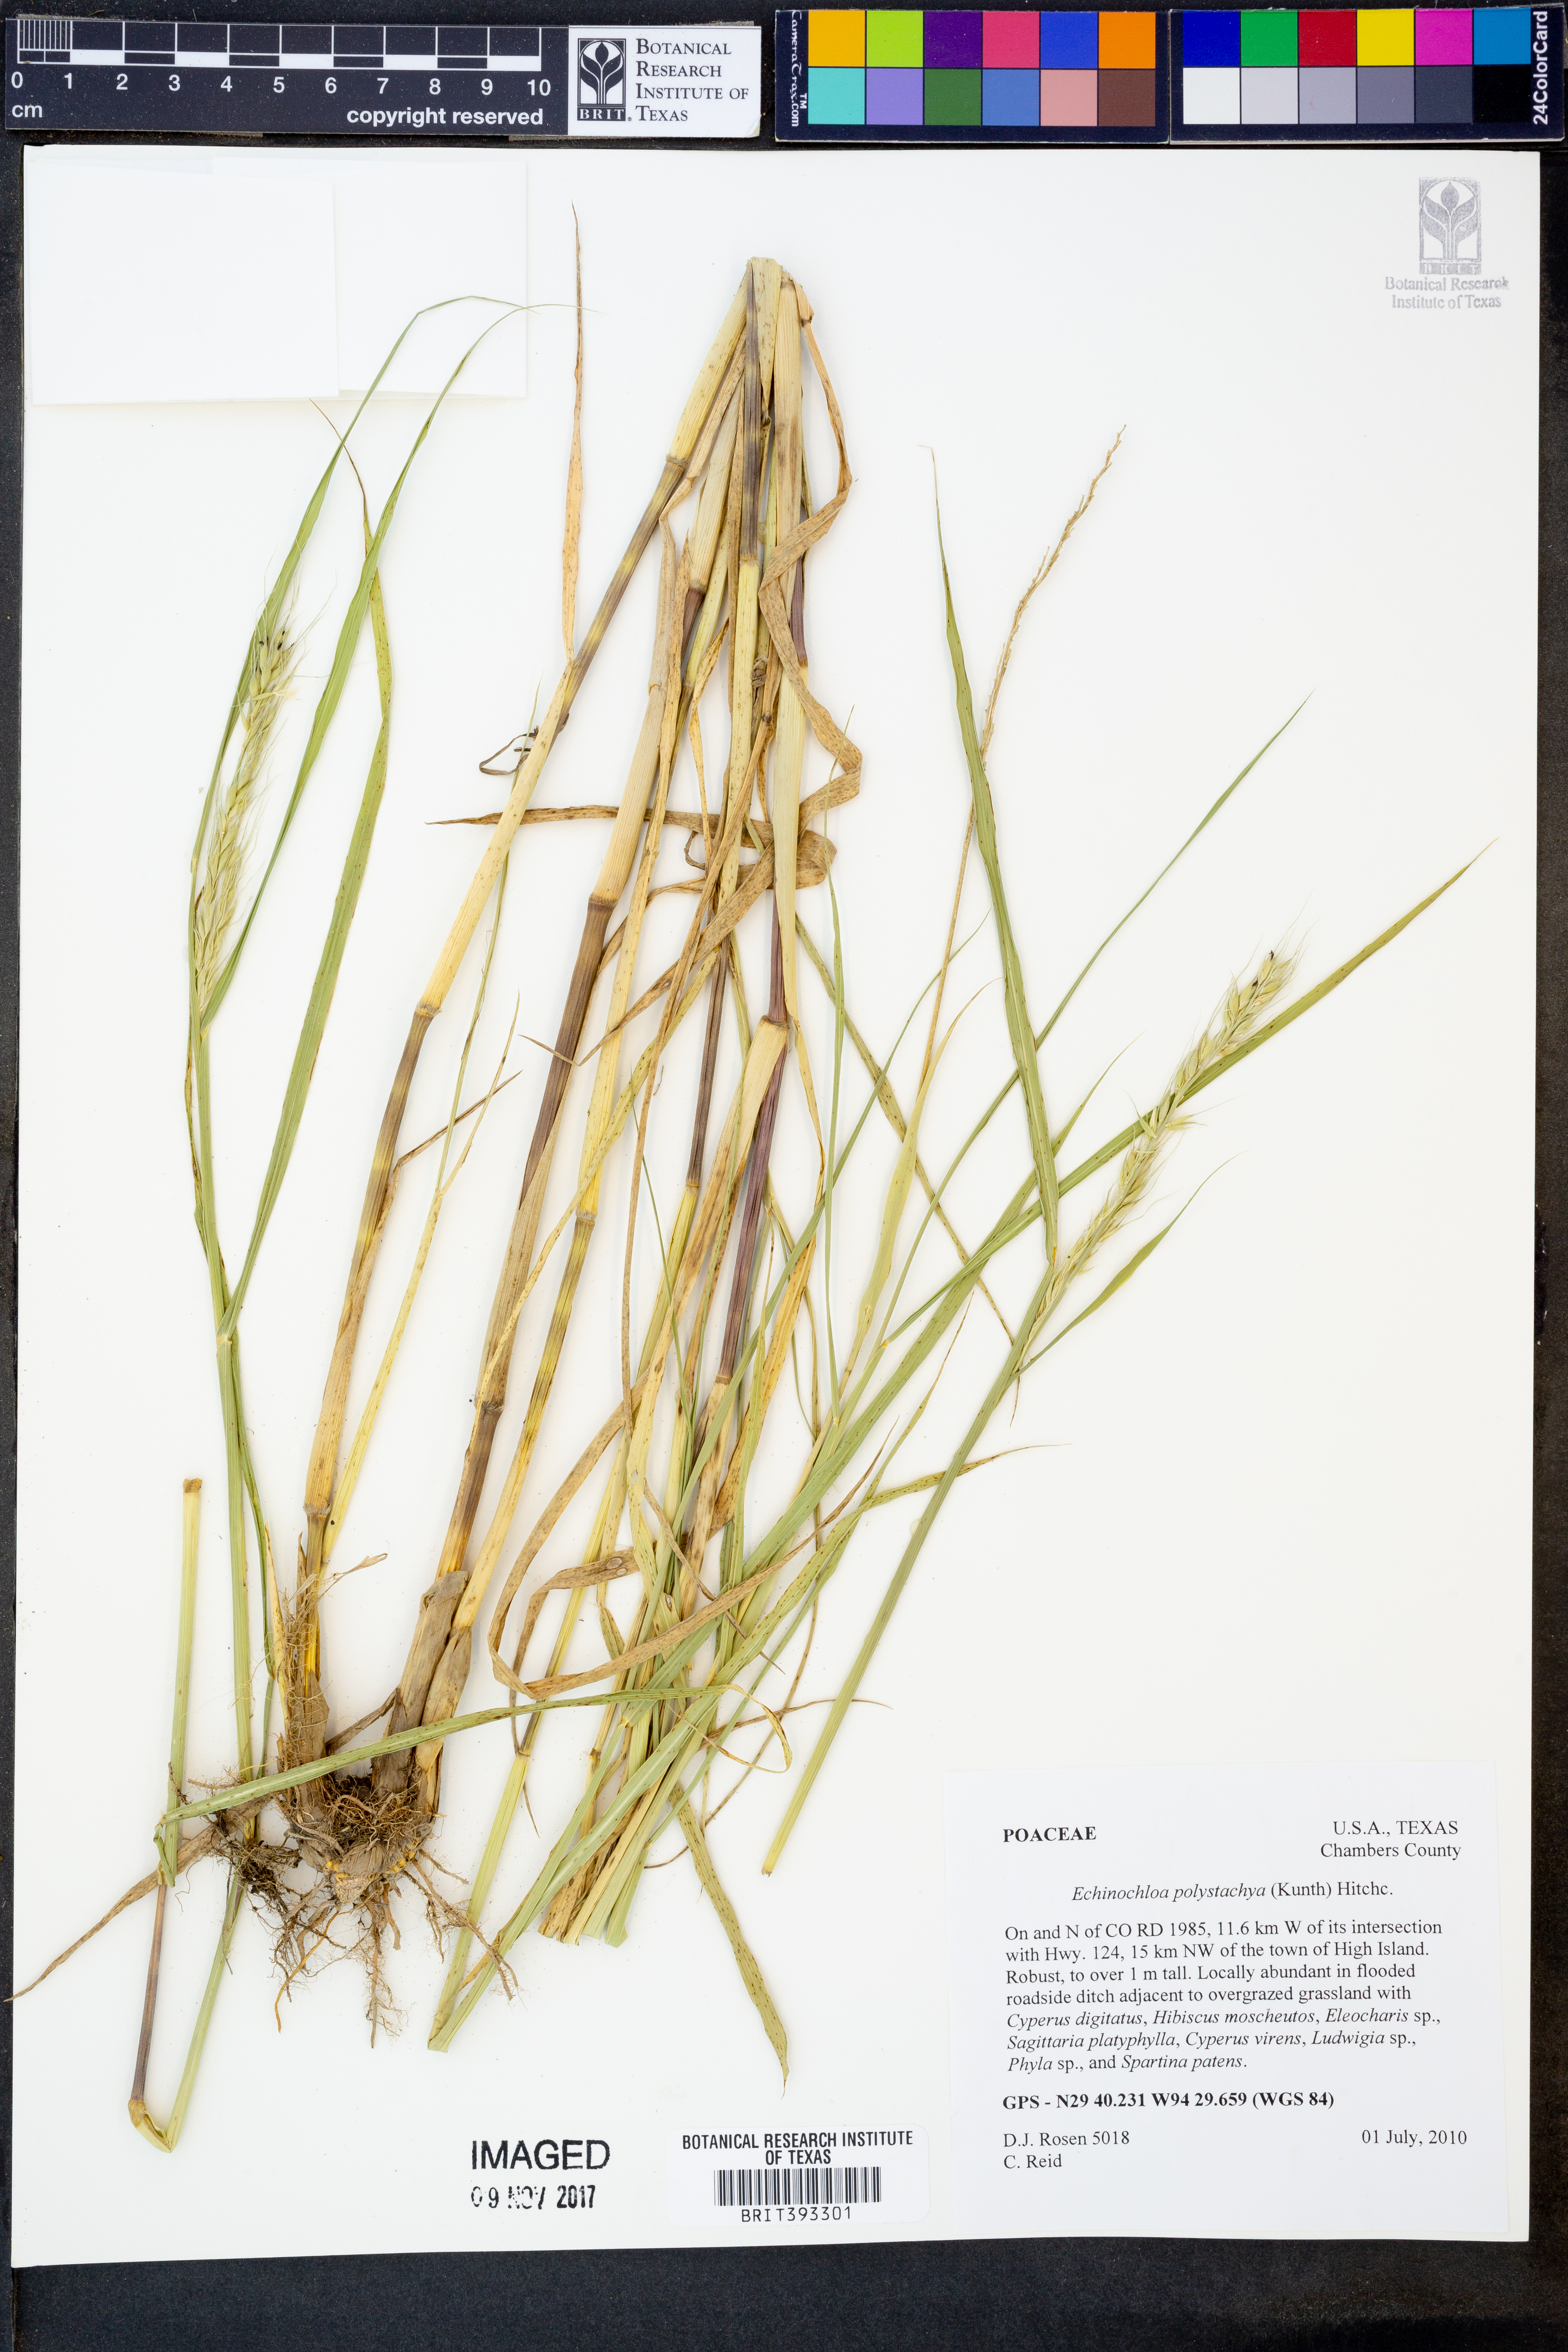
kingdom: Plantae
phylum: Tracheophyta
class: Liliopsida
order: Poales
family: Poaceae
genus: Echinochloa
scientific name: Echinochloa polystachya
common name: Creeping river grass
